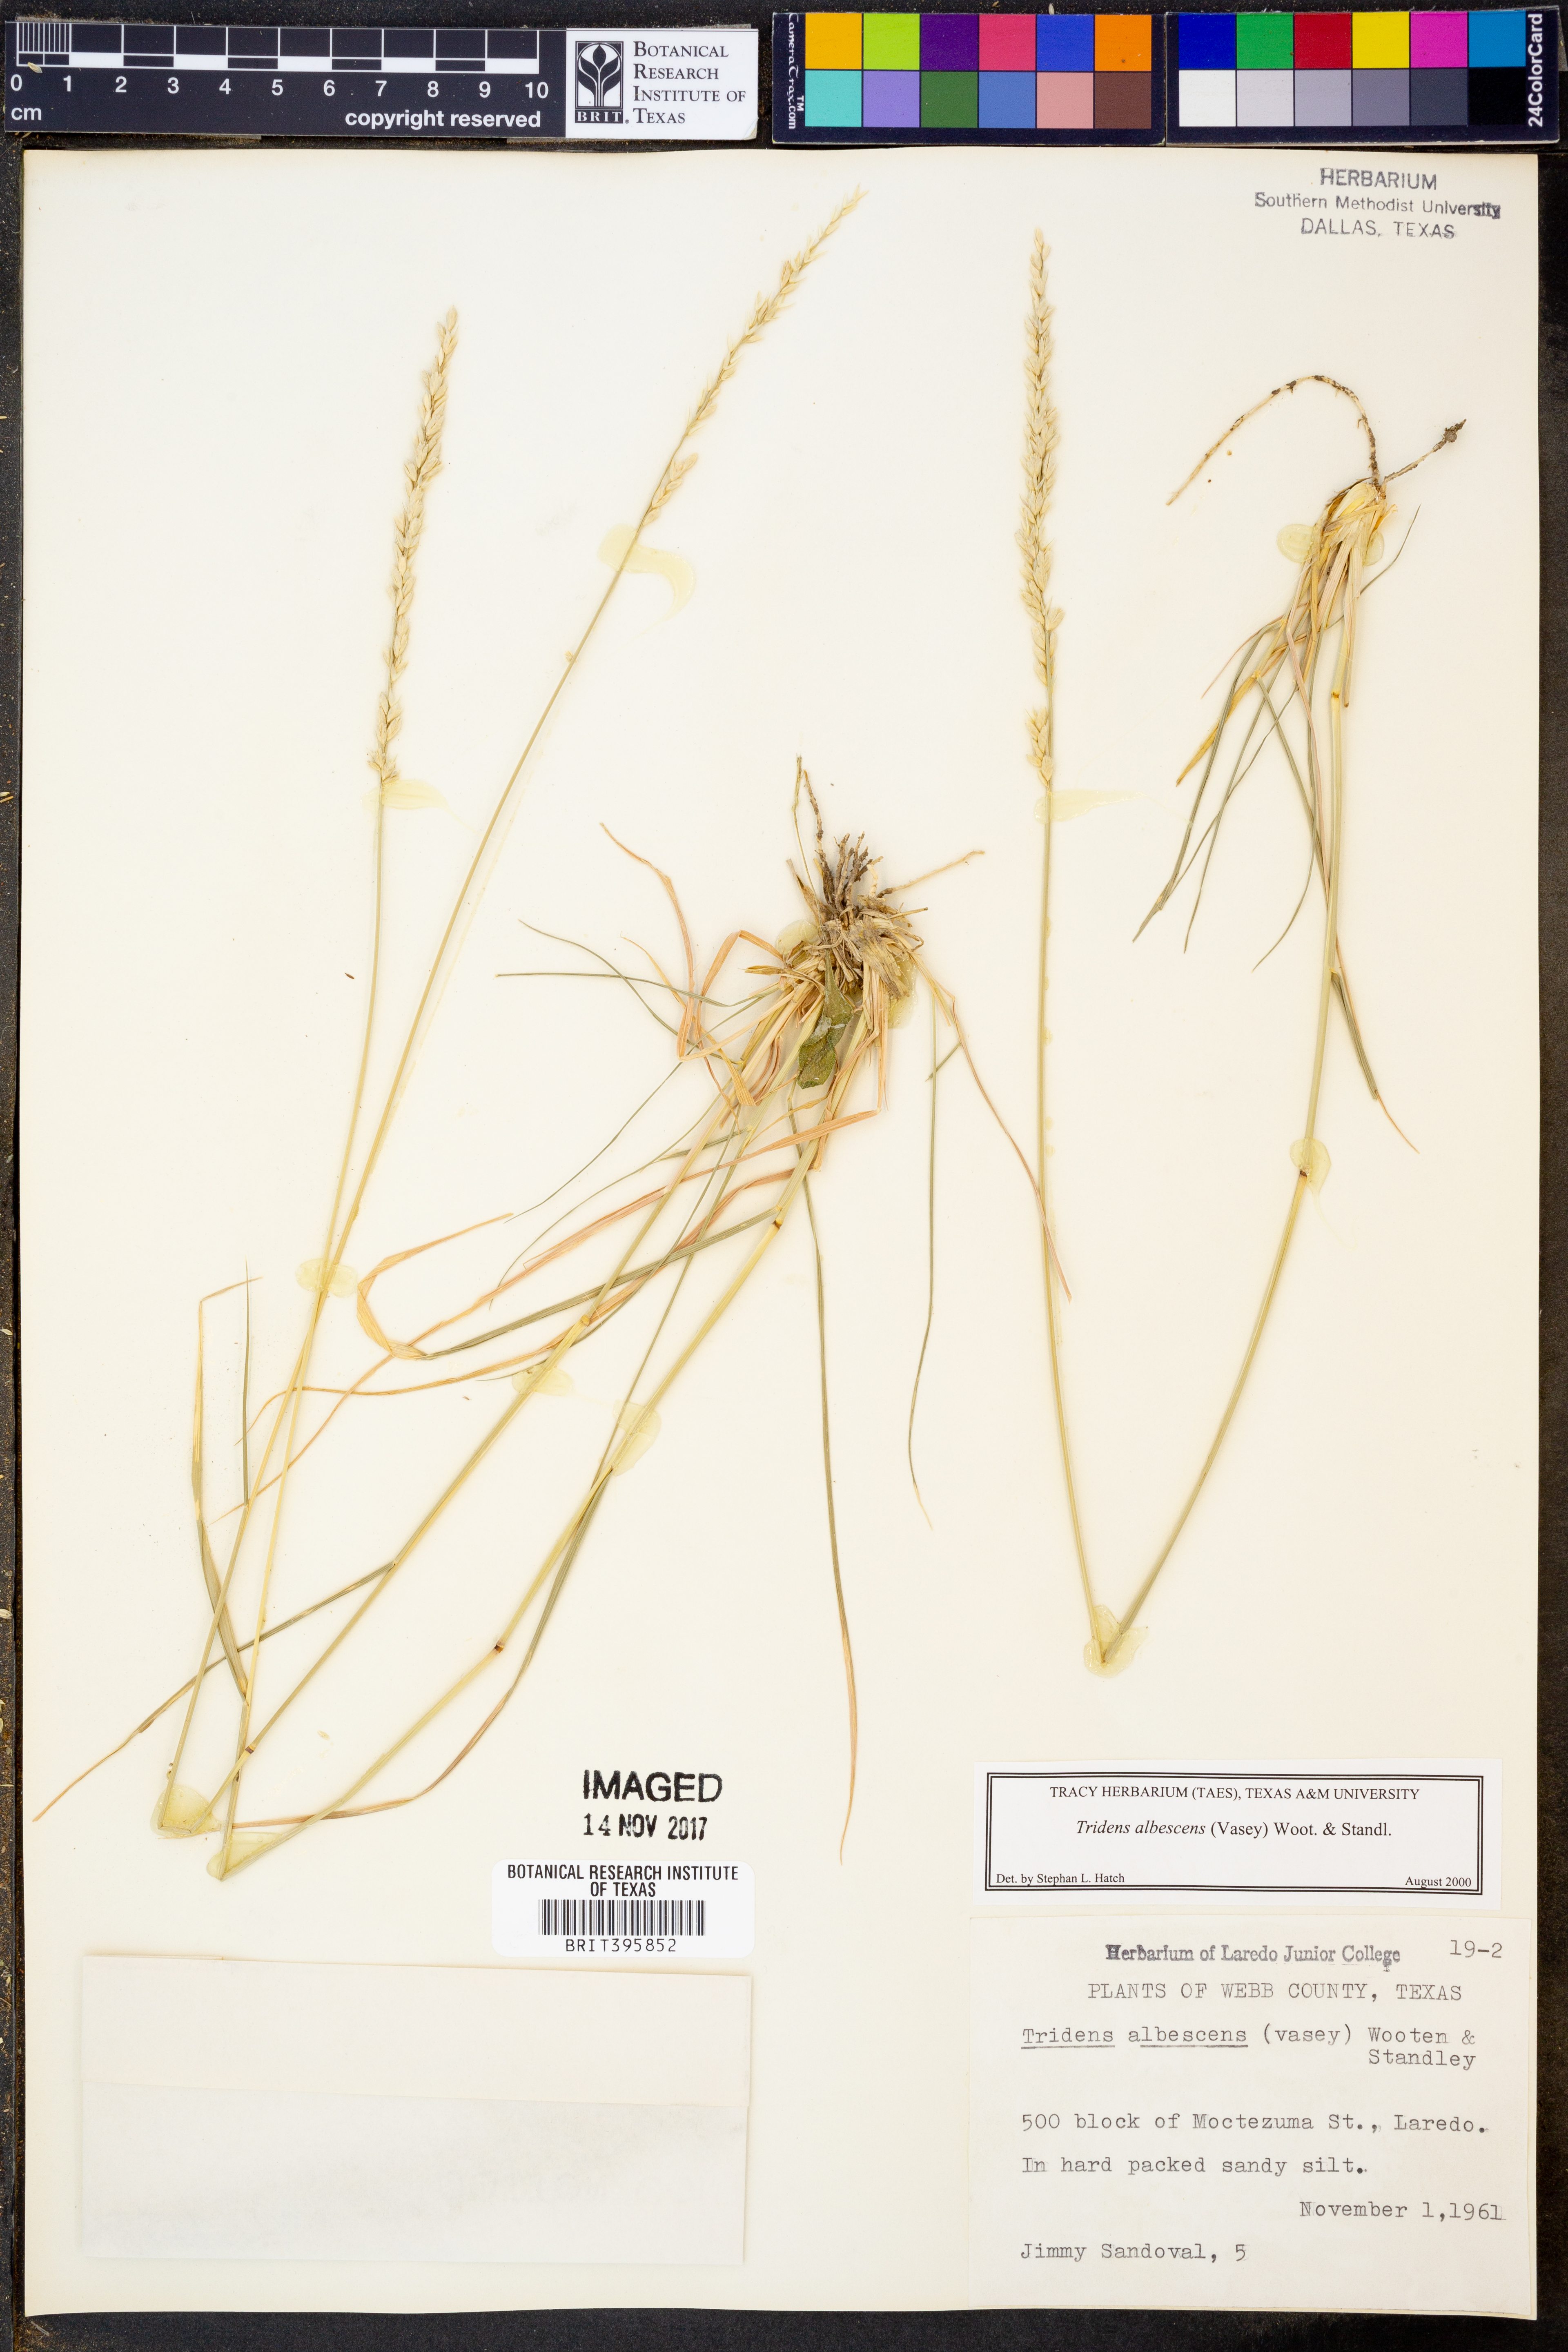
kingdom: Plantae
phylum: Tracheophyta
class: Liliopsida
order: Poales
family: Poaceae
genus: Tridens
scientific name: Tridens albescens
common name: White tridens
